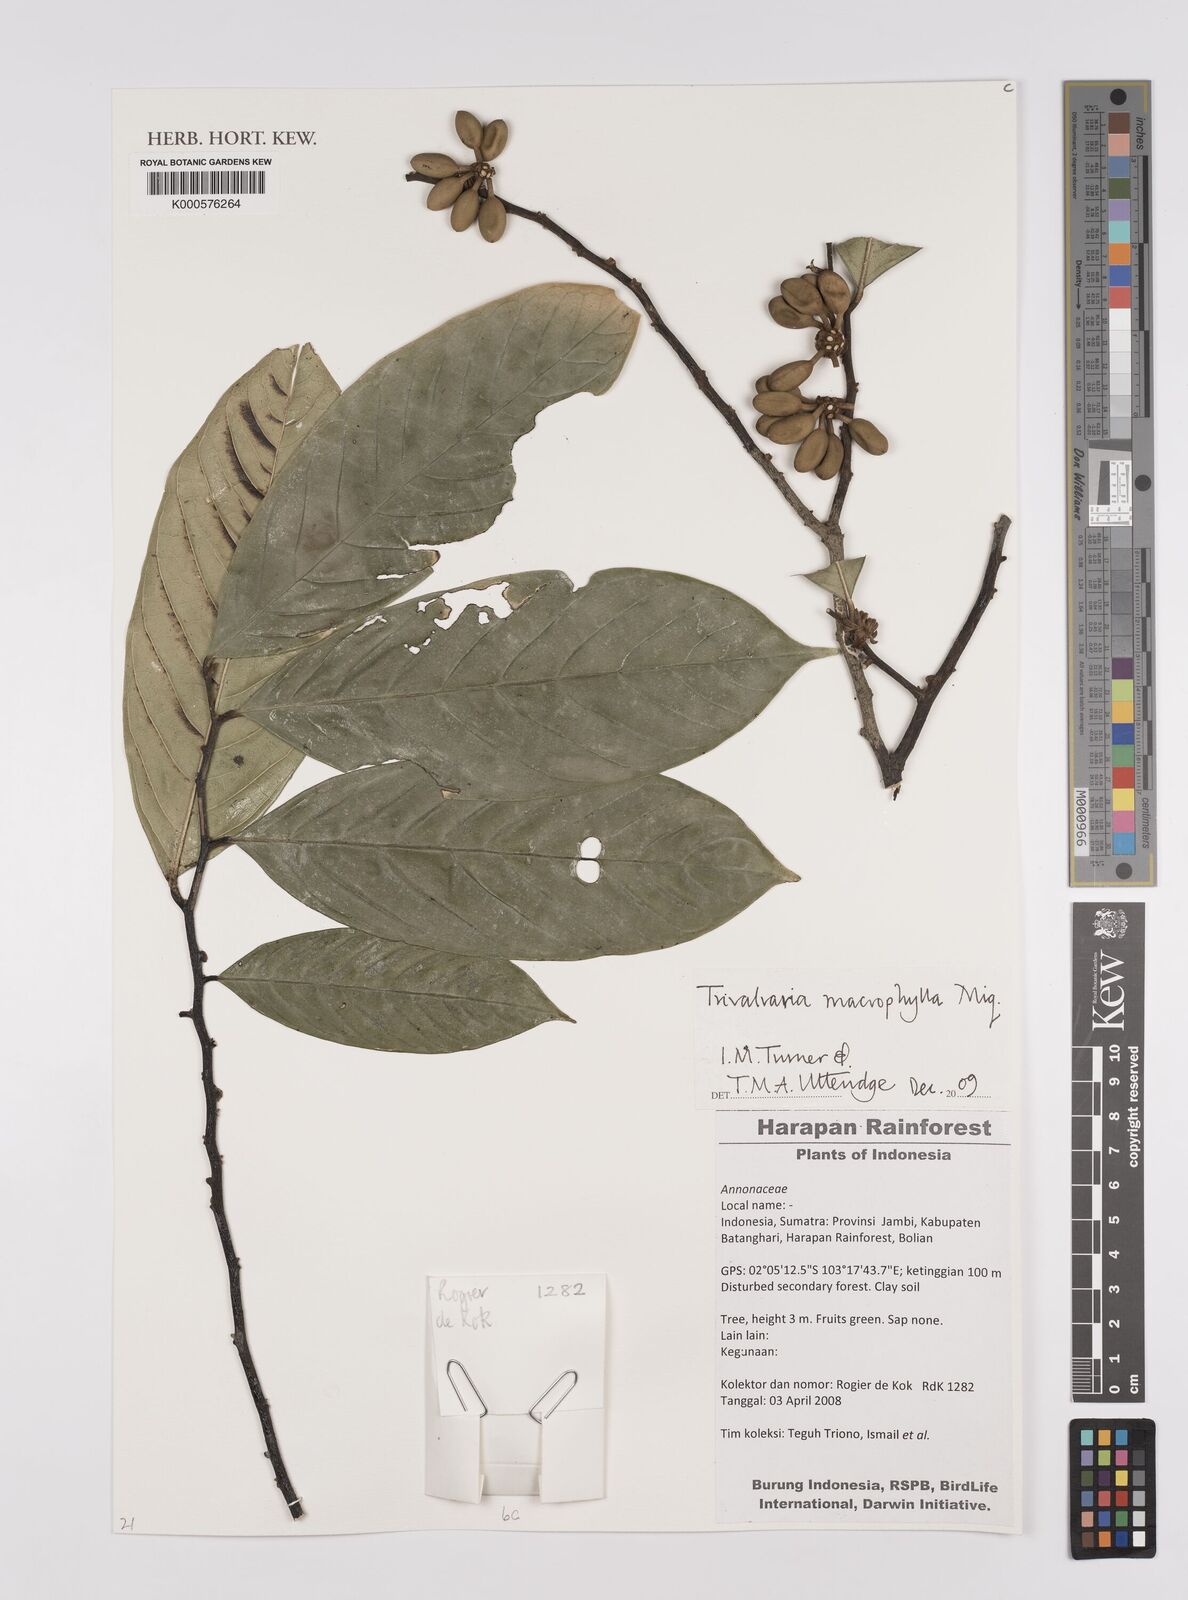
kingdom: Plantae
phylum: Tracheophyta
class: Magnoliopsida
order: Magnoliales
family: Annonaceae
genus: Trivalvaria
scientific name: Trivalvaria macrophylla
